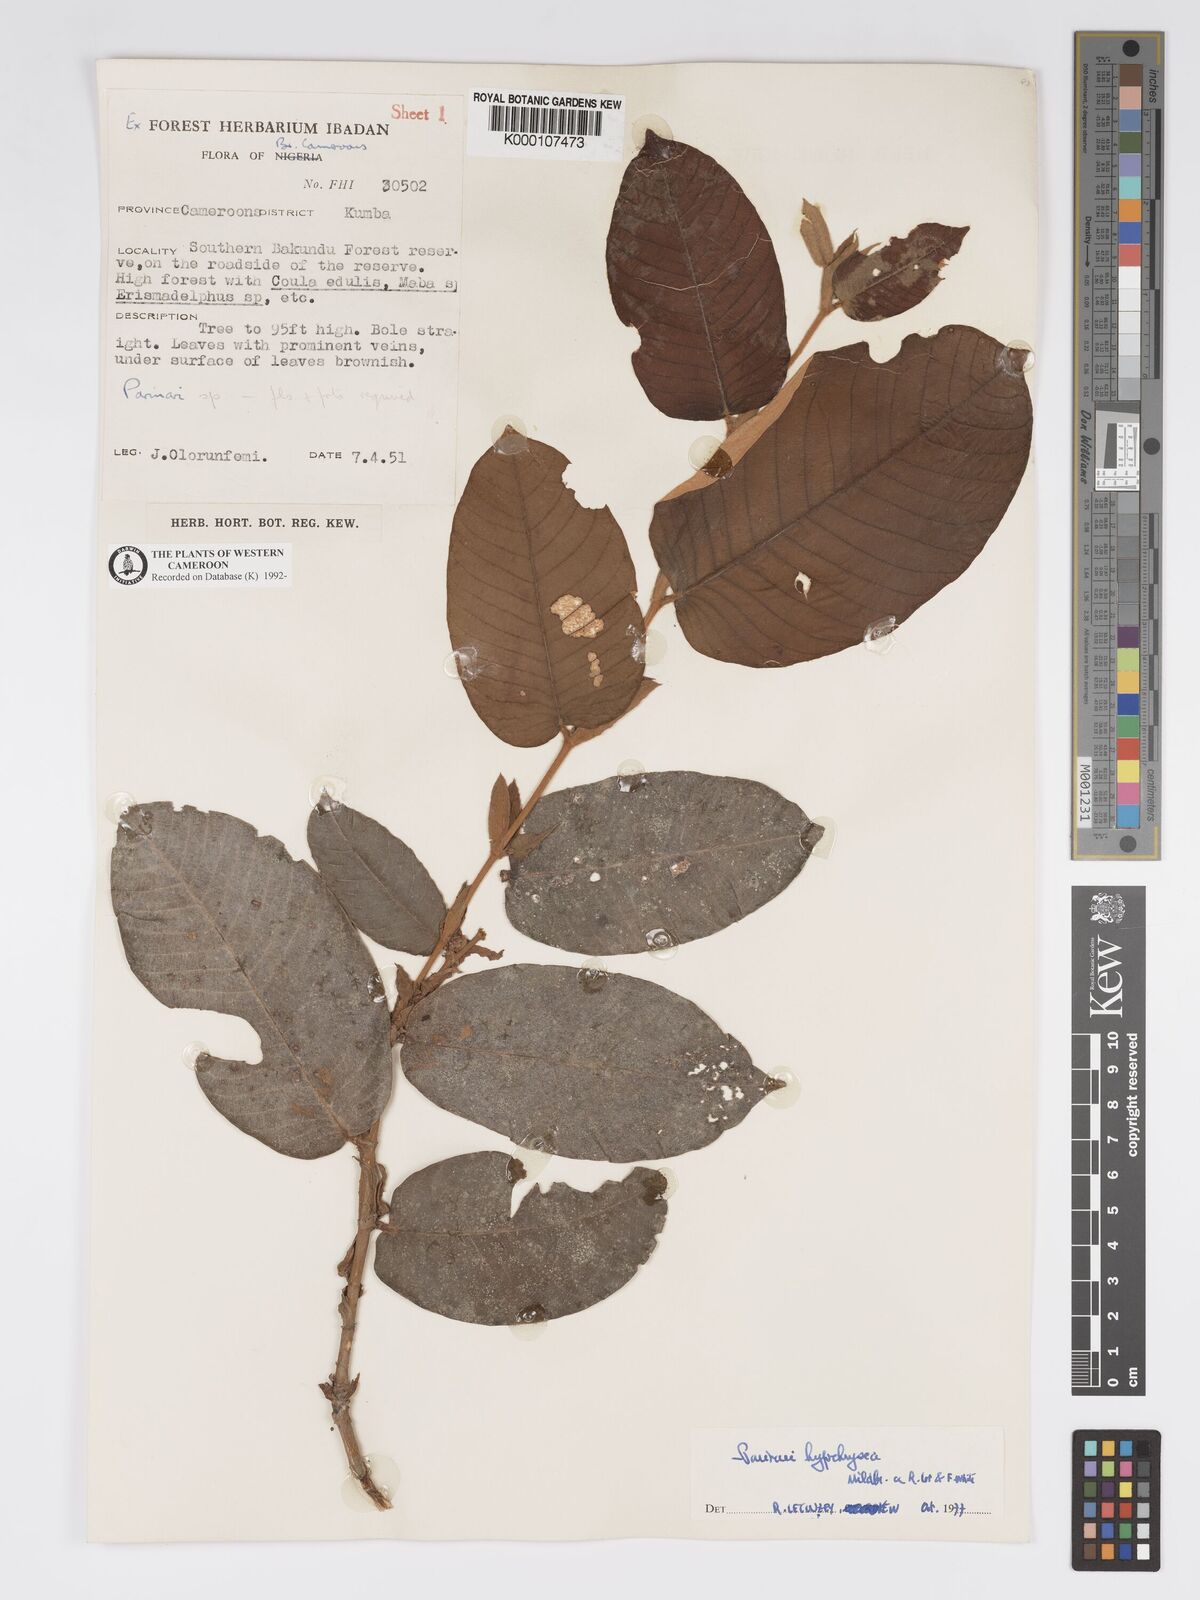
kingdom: Plantae
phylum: Tracheophyta
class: Magnoliopsida
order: Malpighiales
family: Chrysobalanaceae
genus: Parinari
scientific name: Parinari hypochrysea
